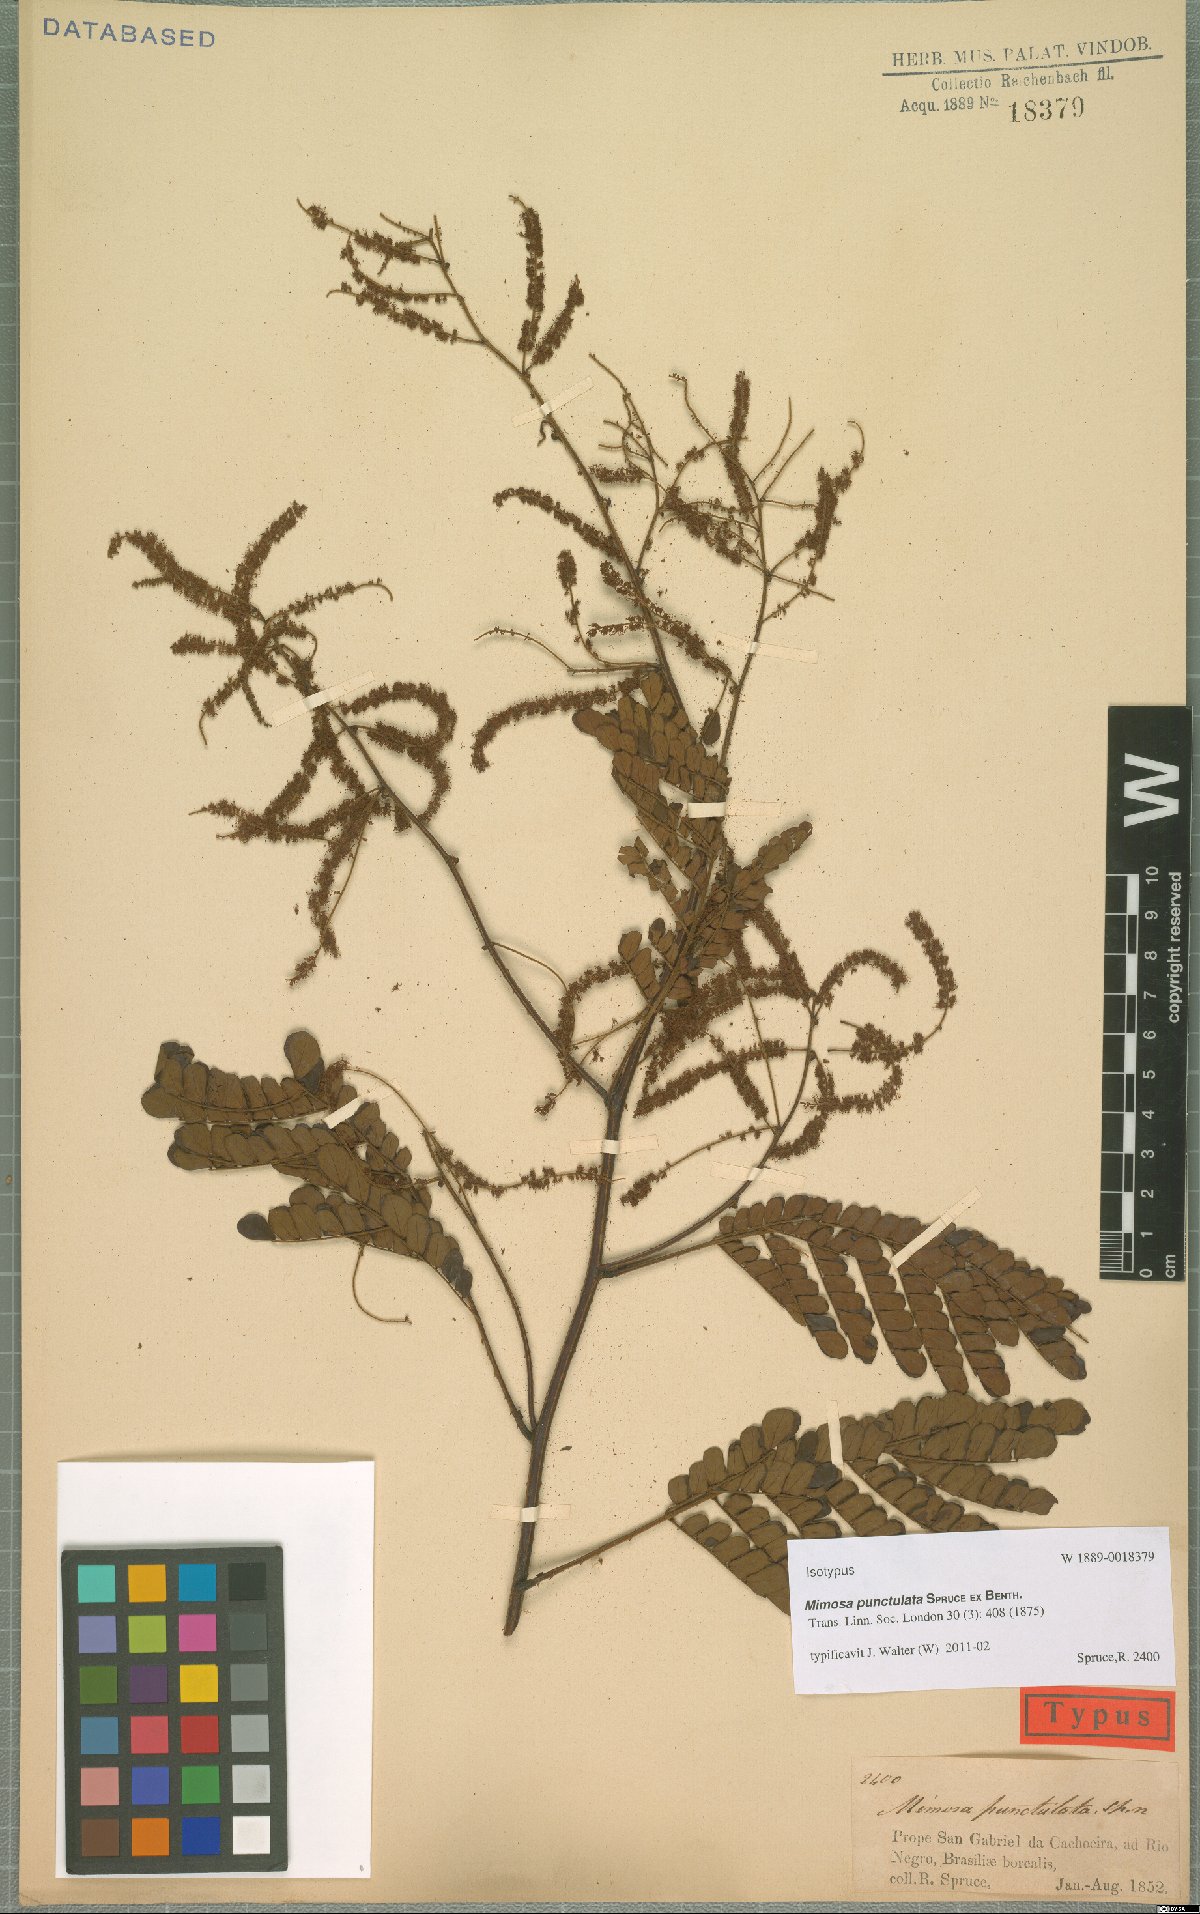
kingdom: Plantae
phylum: Tracheophyta
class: Magnoliopsida
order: Fabales
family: Fabaceae
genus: Mimosa
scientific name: Mimosa myriadenia
